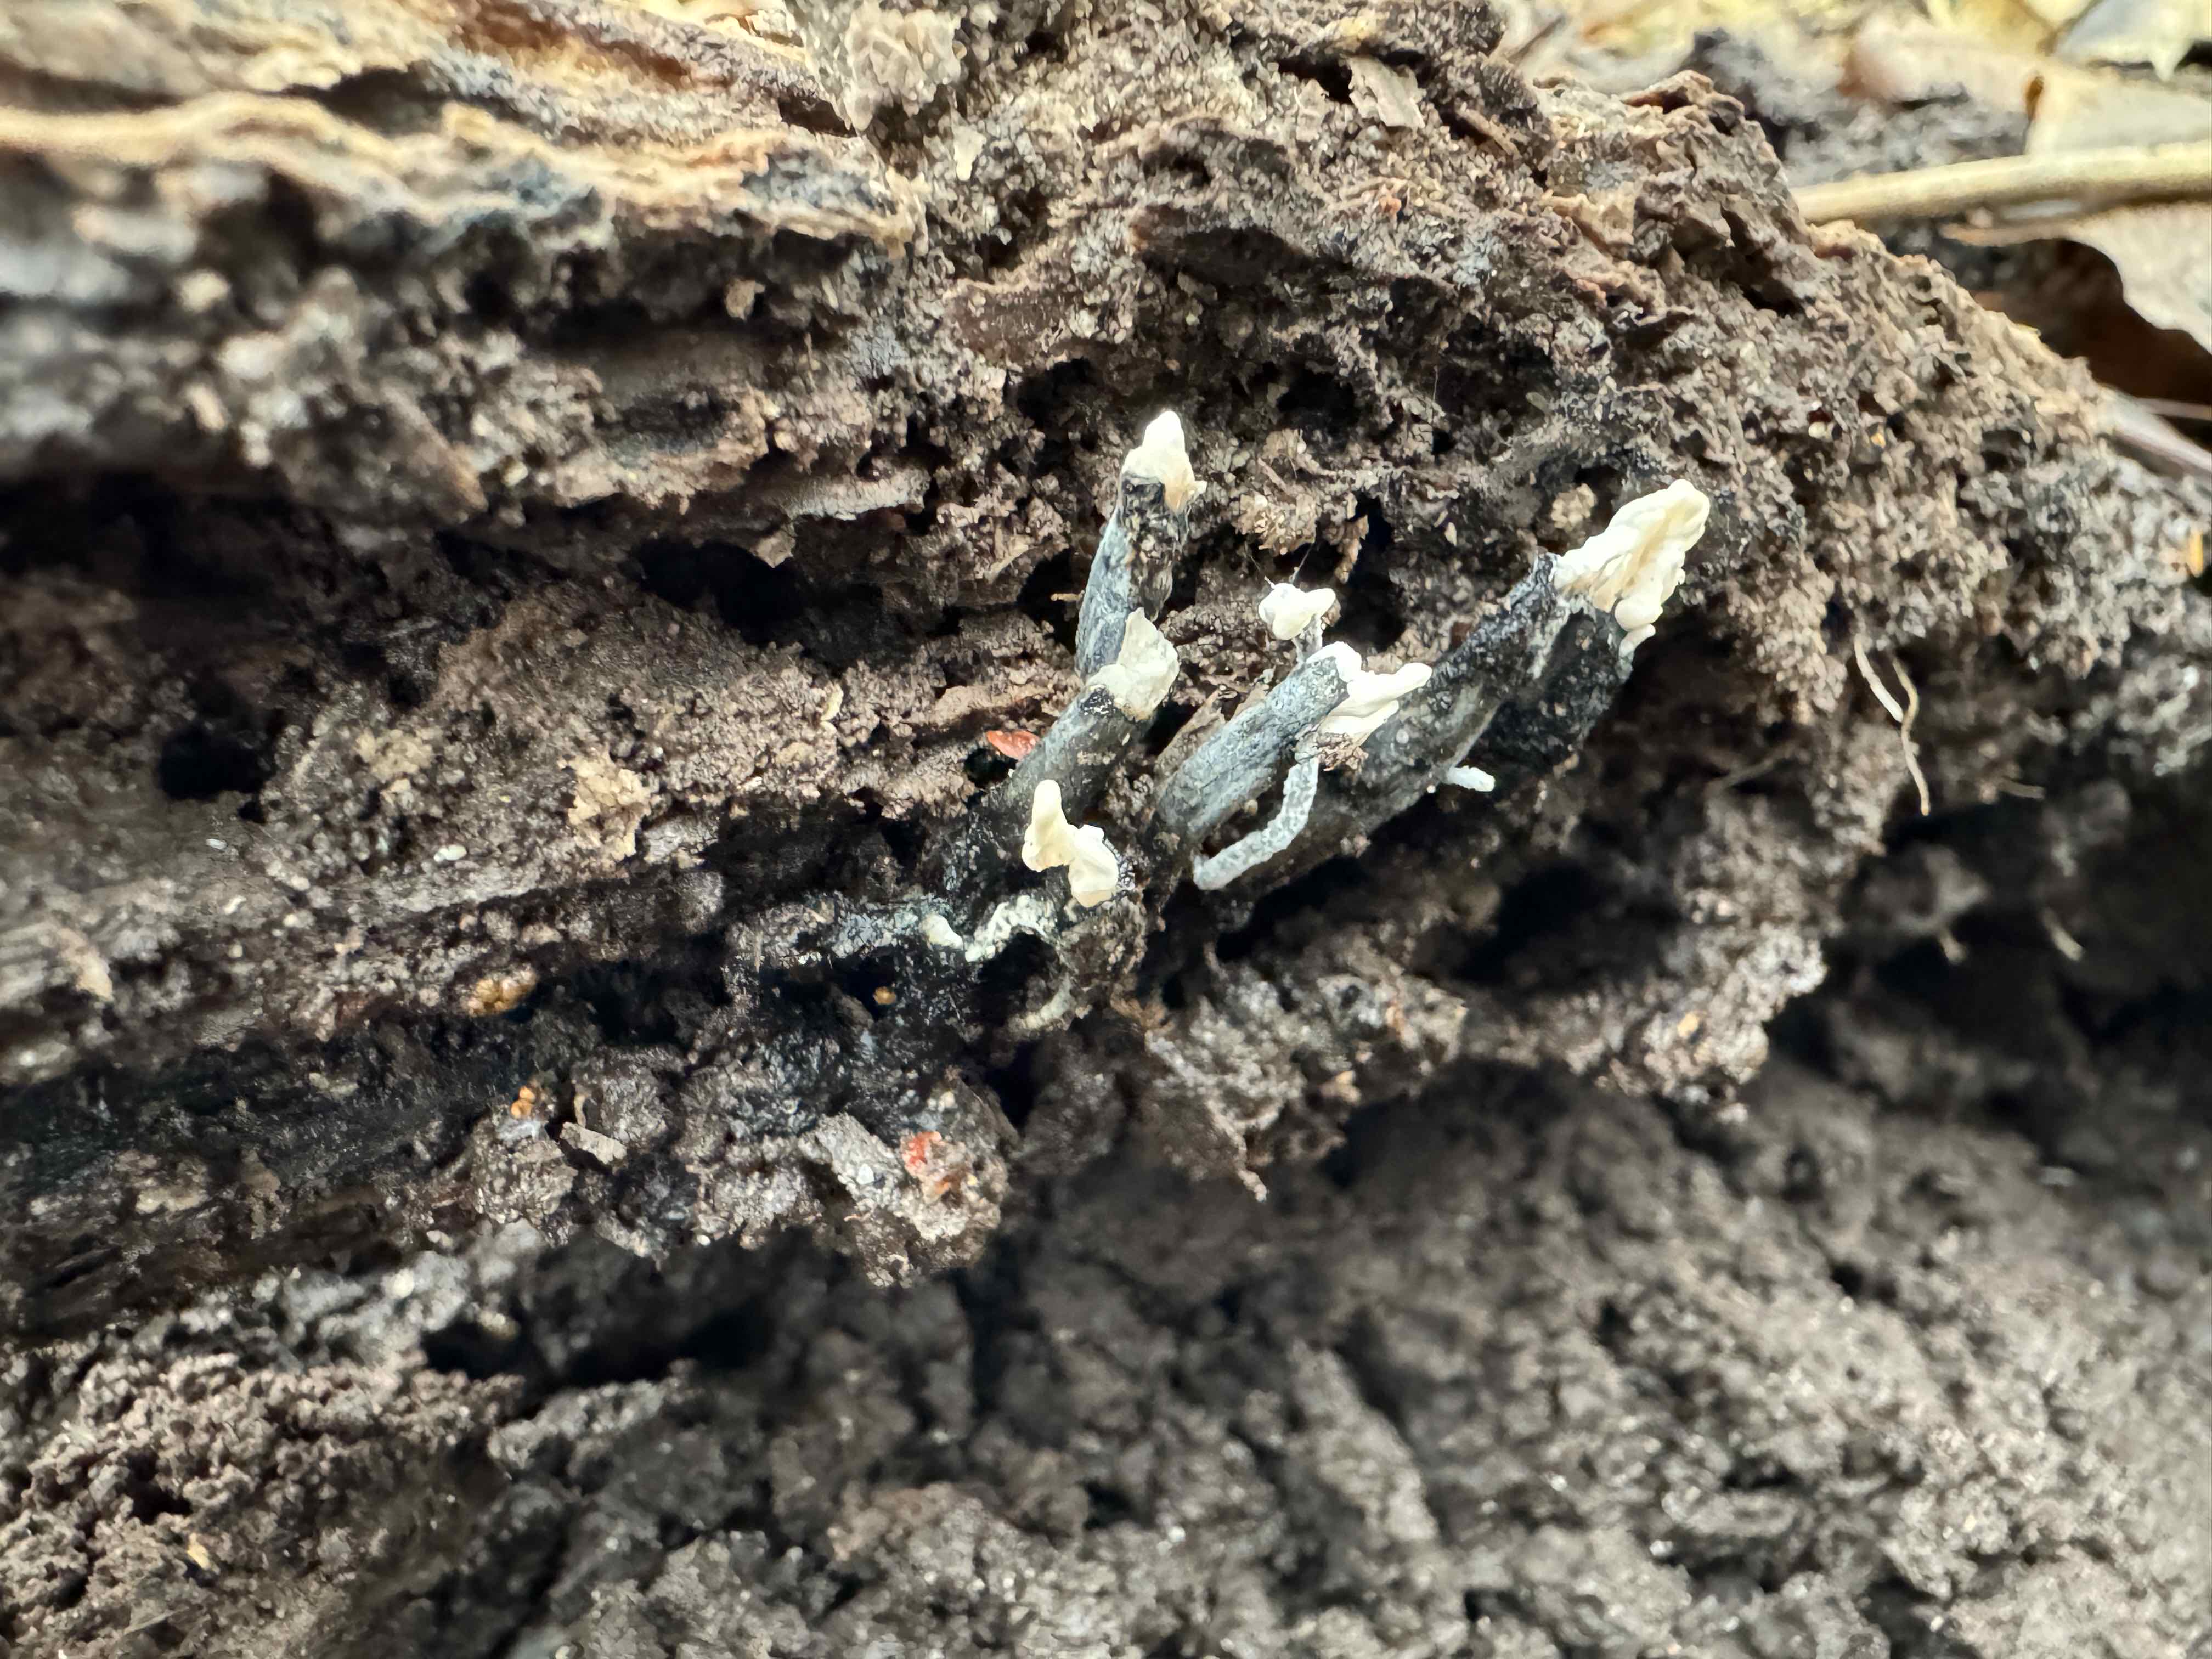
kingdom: Fungi
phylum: Ascomycota
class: Sordariomycetes
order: Xylariales
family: Xylariaceae
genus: Xylaria
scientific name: Xylaria hypoxylon
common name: grenet stødsvamp
